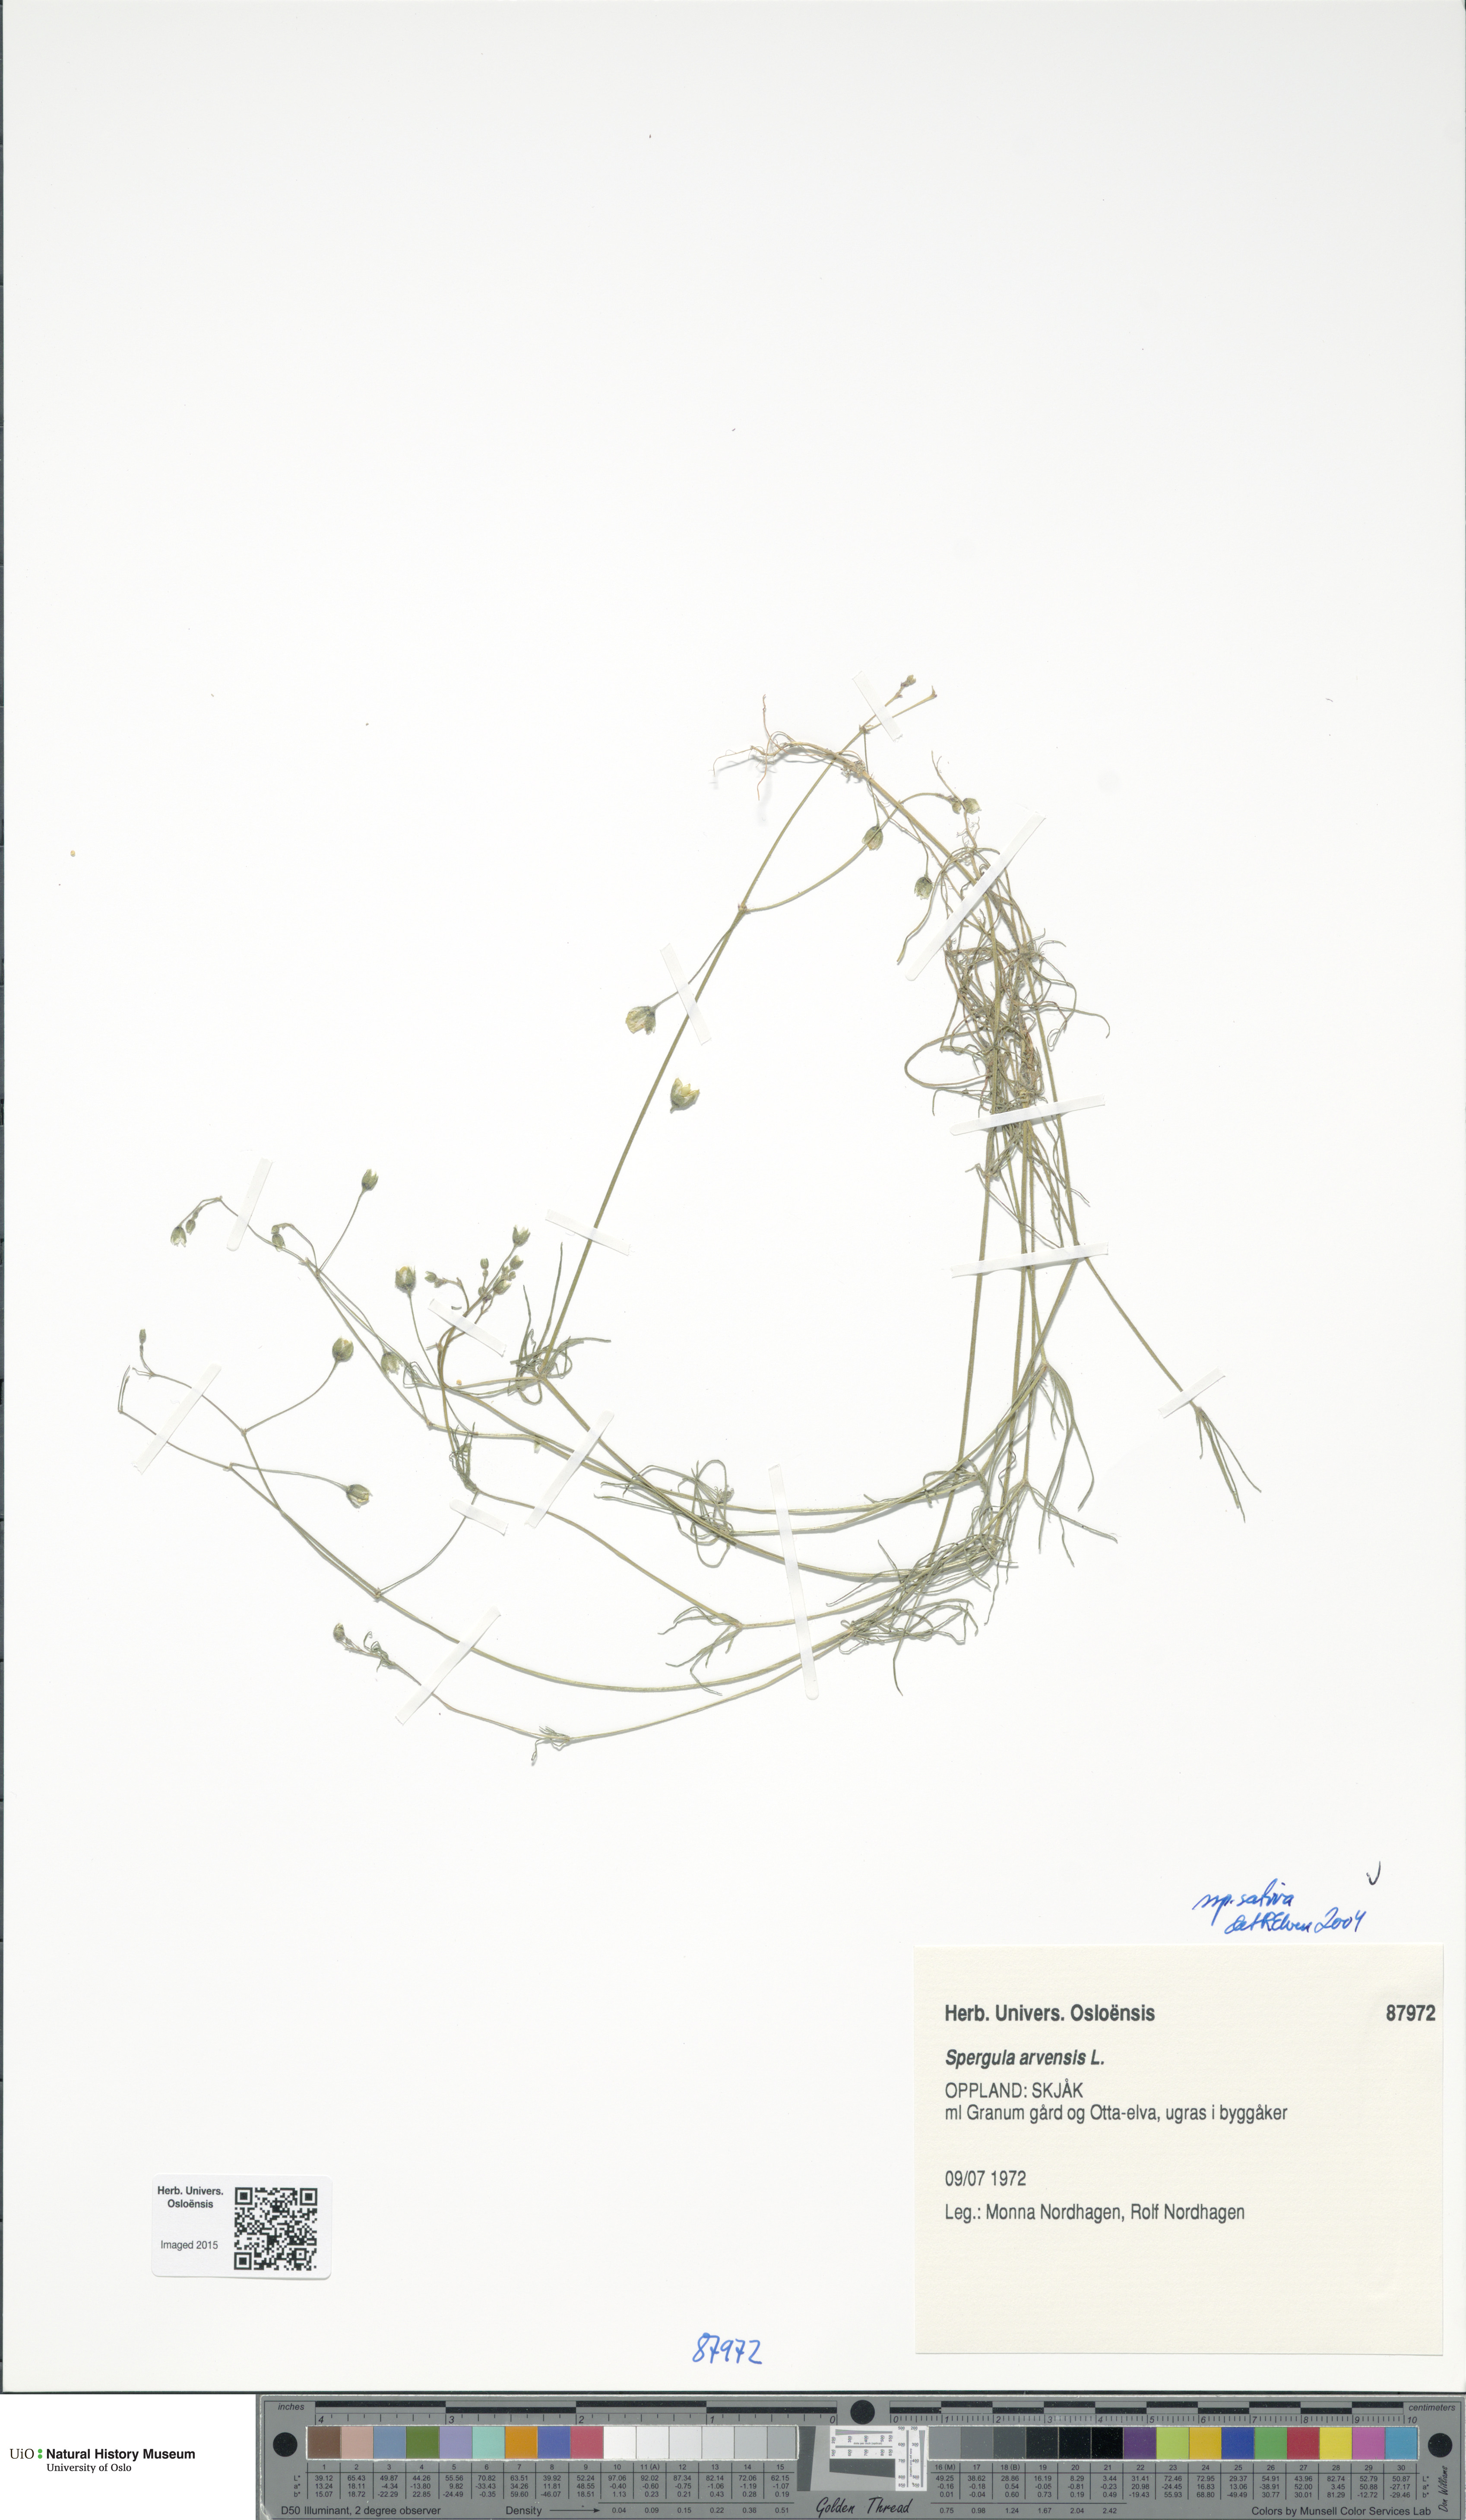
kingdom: Plantae
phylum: Tracheophyta
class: Magnoliopsida
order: Caryophyllales
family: Caryophyllaceae
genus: Spergula
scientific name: Spergula arvensis
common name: Corn spurrey
